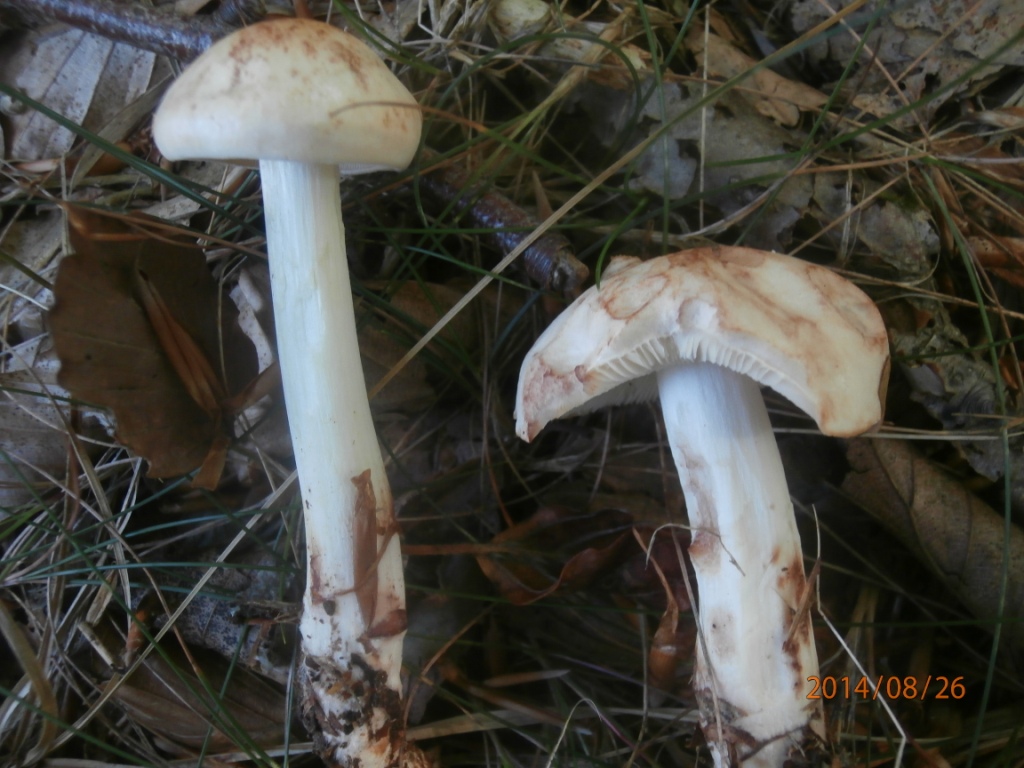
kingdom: Fungi
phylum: Basidiomycota
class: Agaricomycetes
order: Agaricales
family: Omphalotaceae
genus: Rhodocollybia
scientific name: Rhodocollybia maculata
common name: plettet fladhat
